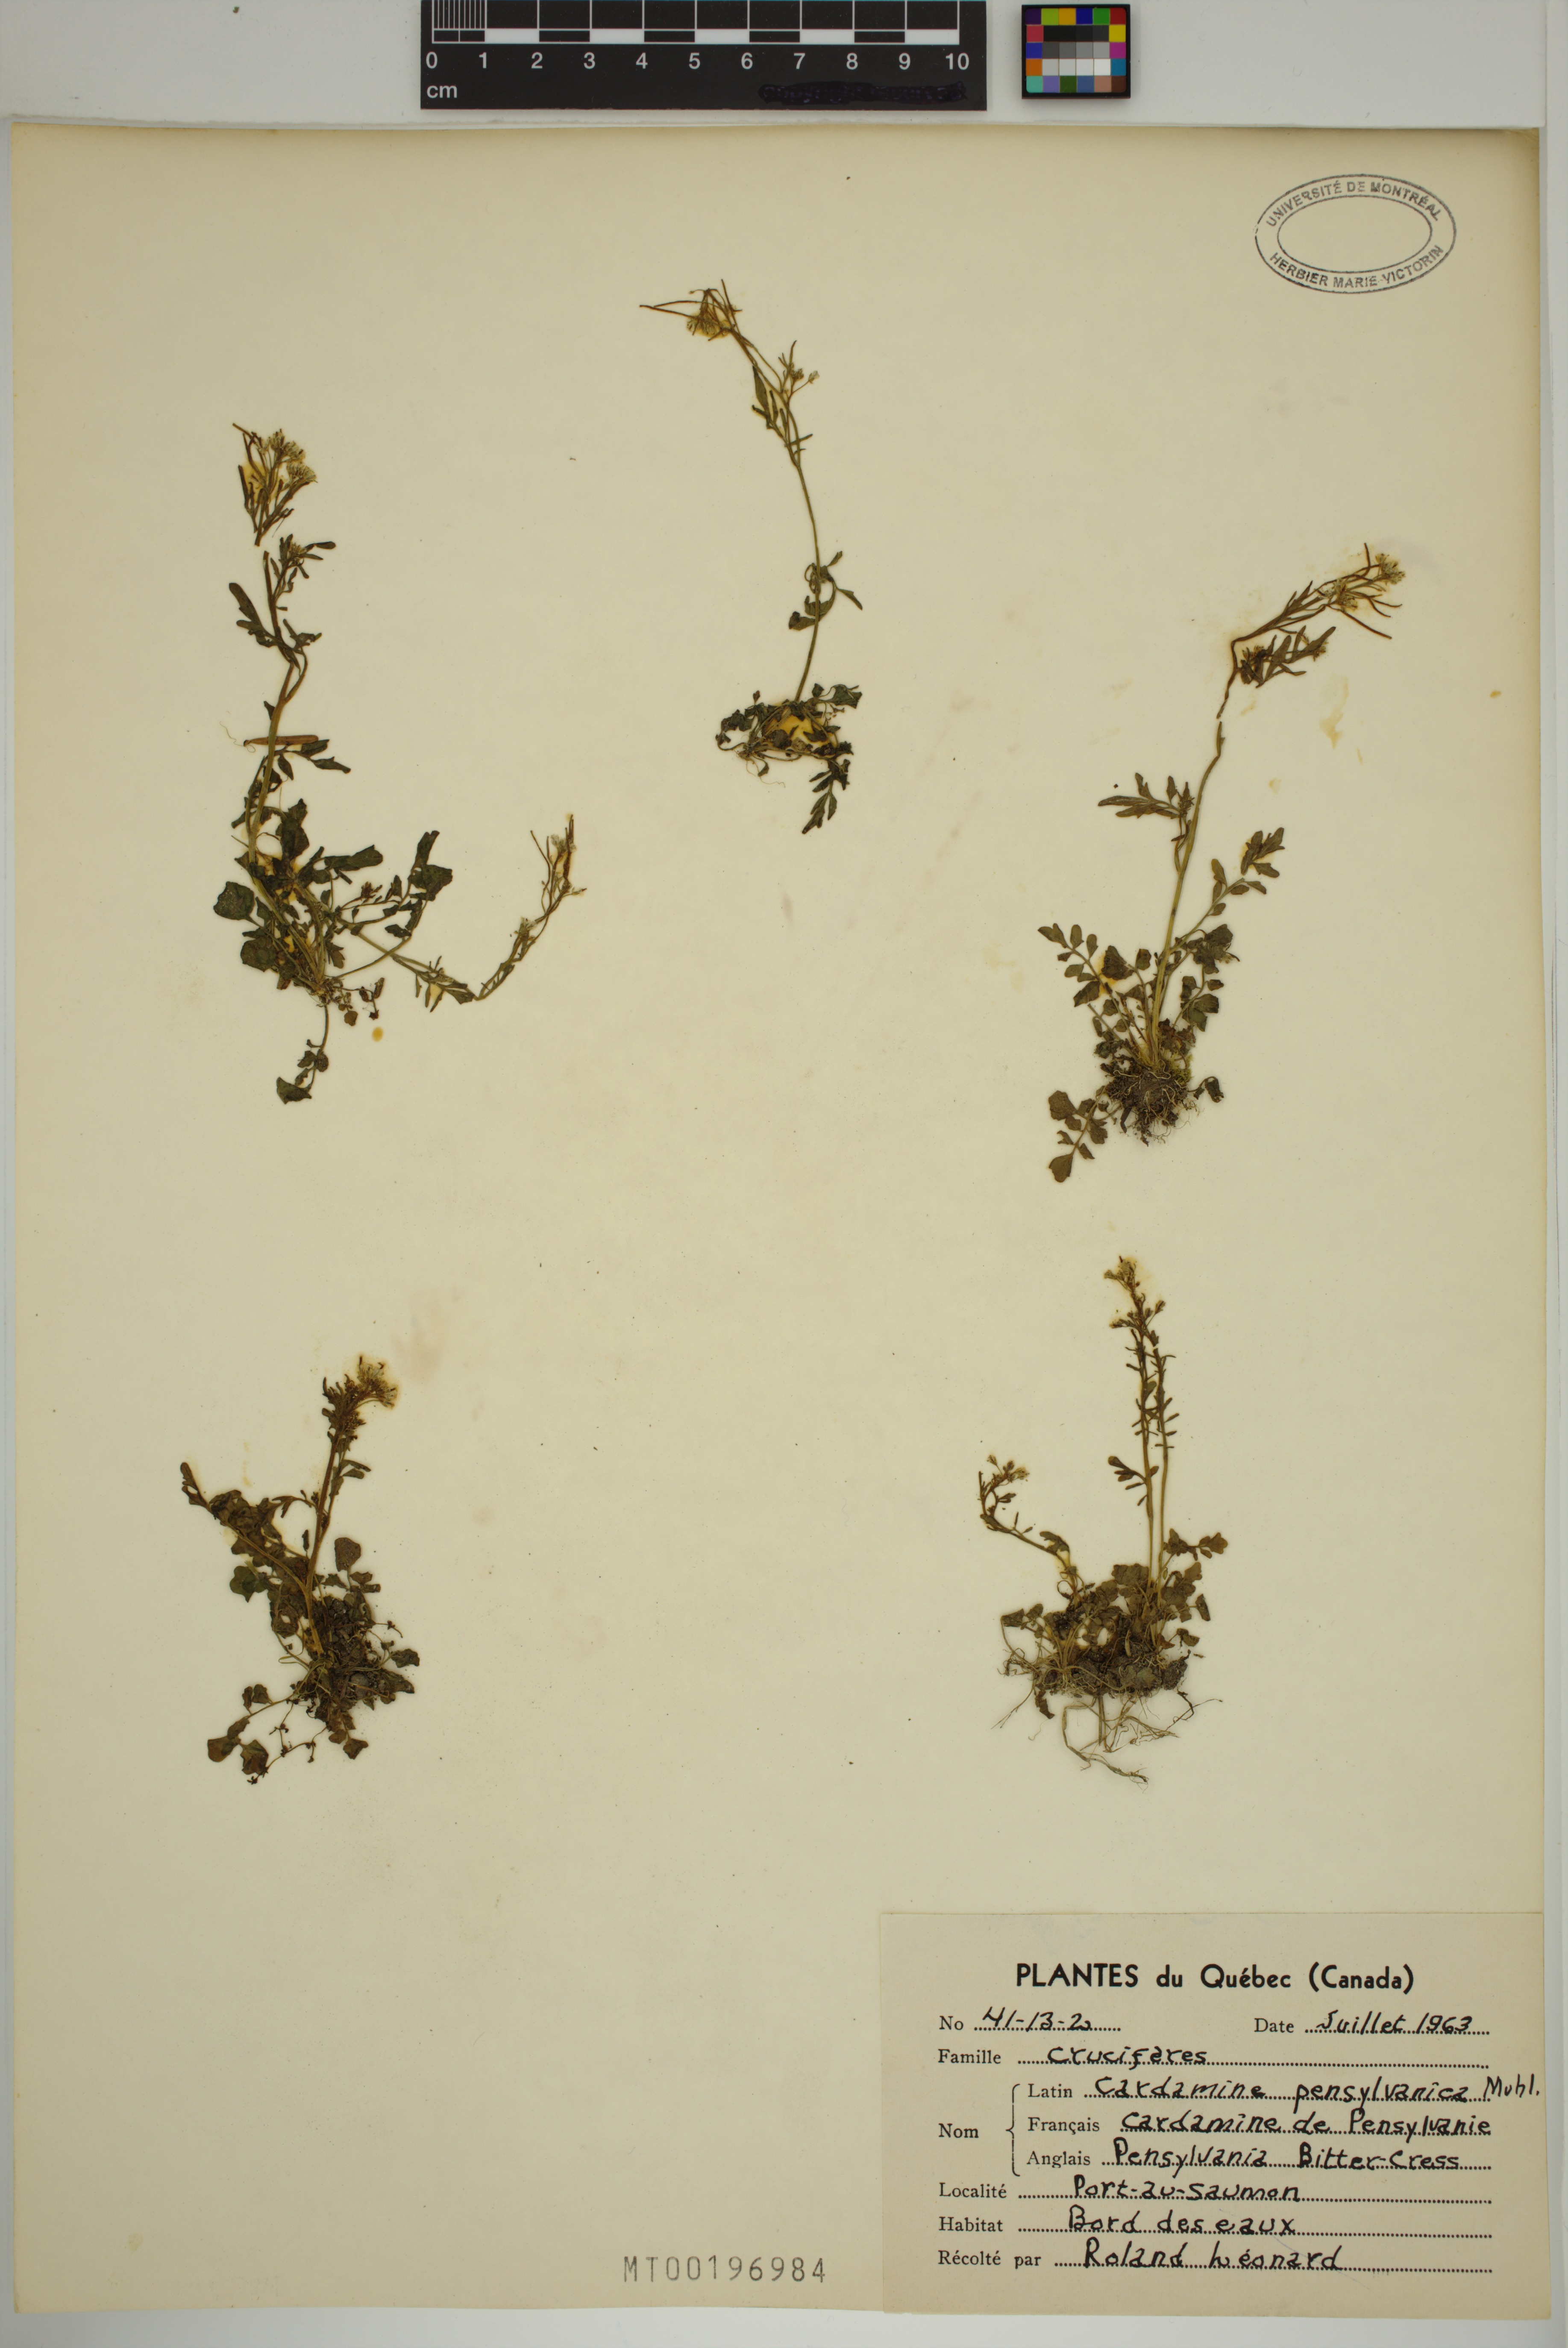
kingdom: Plantae
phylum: Tracheophyta
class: Magnoliopsida
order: Brassicales
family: Brassicaceae
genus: Cardamine
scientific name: Cardamine pensylvanica
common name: Pennsylvania bittercress
